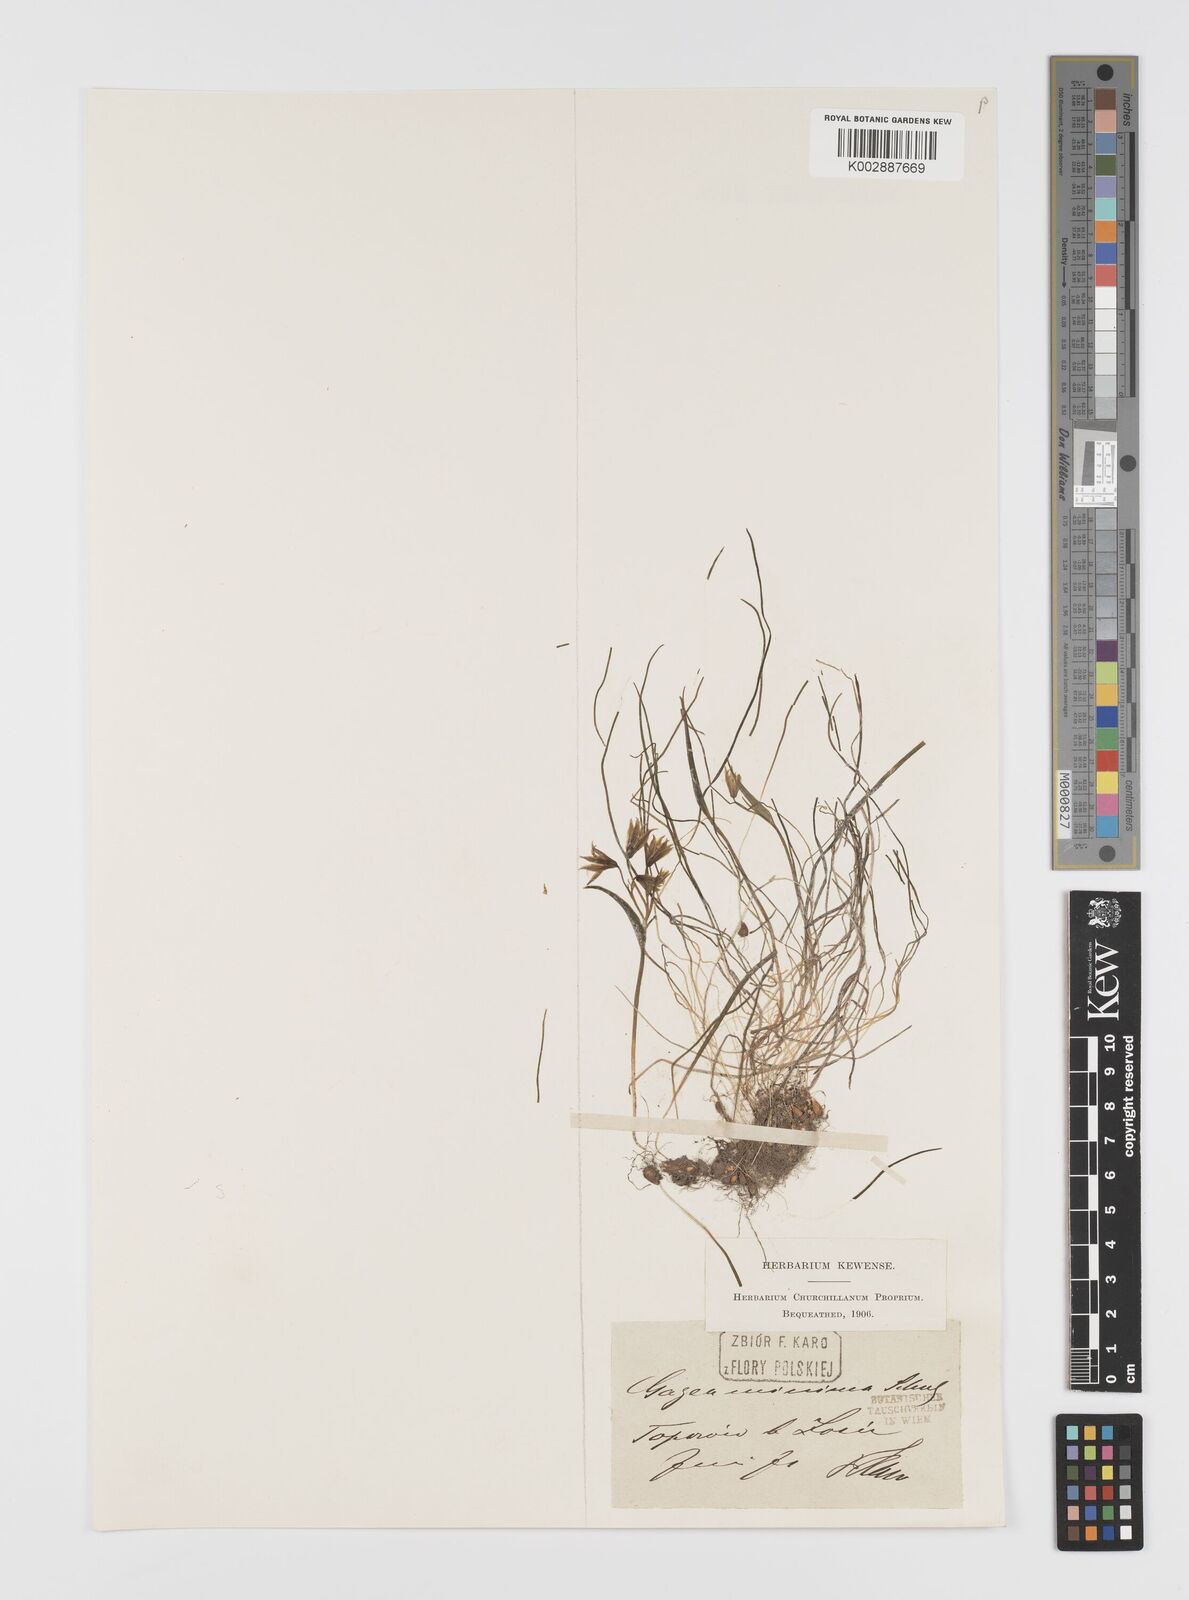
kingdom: Plantae
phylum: Tracheophyta
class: Liliopsida
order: Liliales
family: Liliaceae
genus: Gagea
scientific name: Gagea
